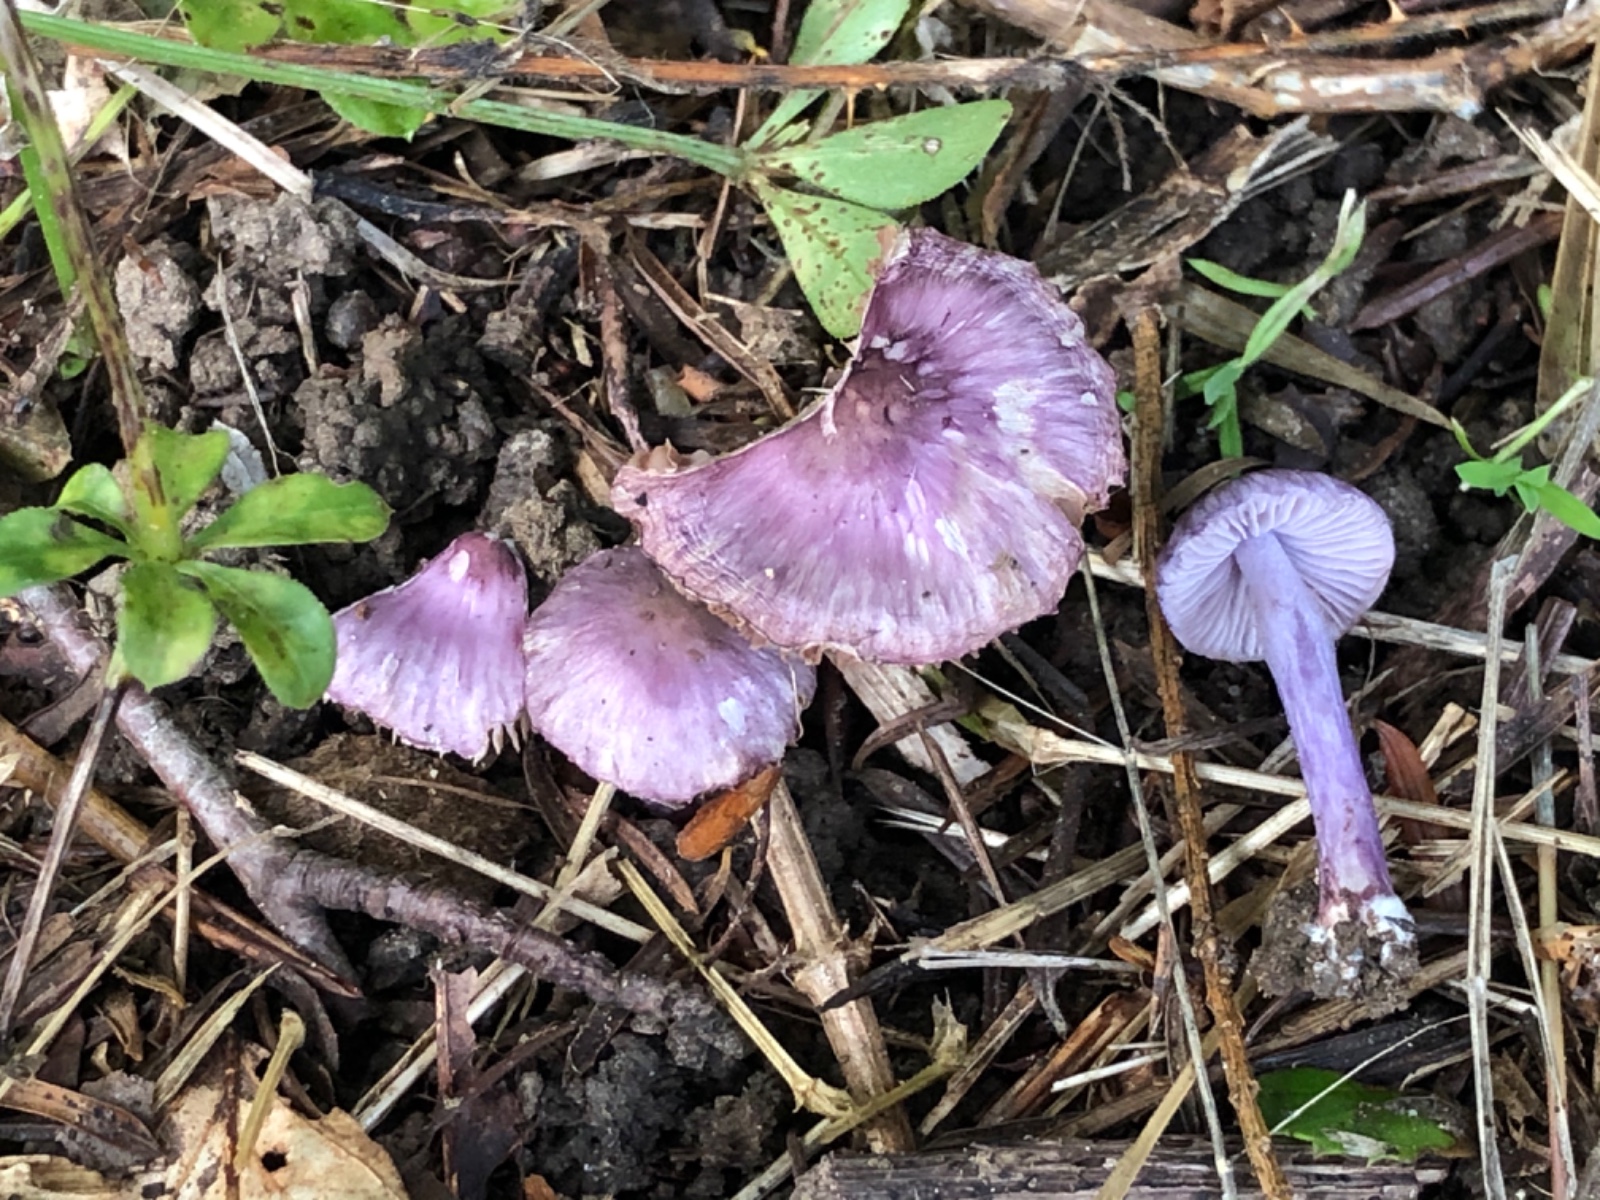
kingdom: Fungi
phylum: Basidiomycota
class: Agaricomycetes
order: Agaricales
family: Inocybaceae
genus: Inocybe
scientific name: Inocybe geophylla
